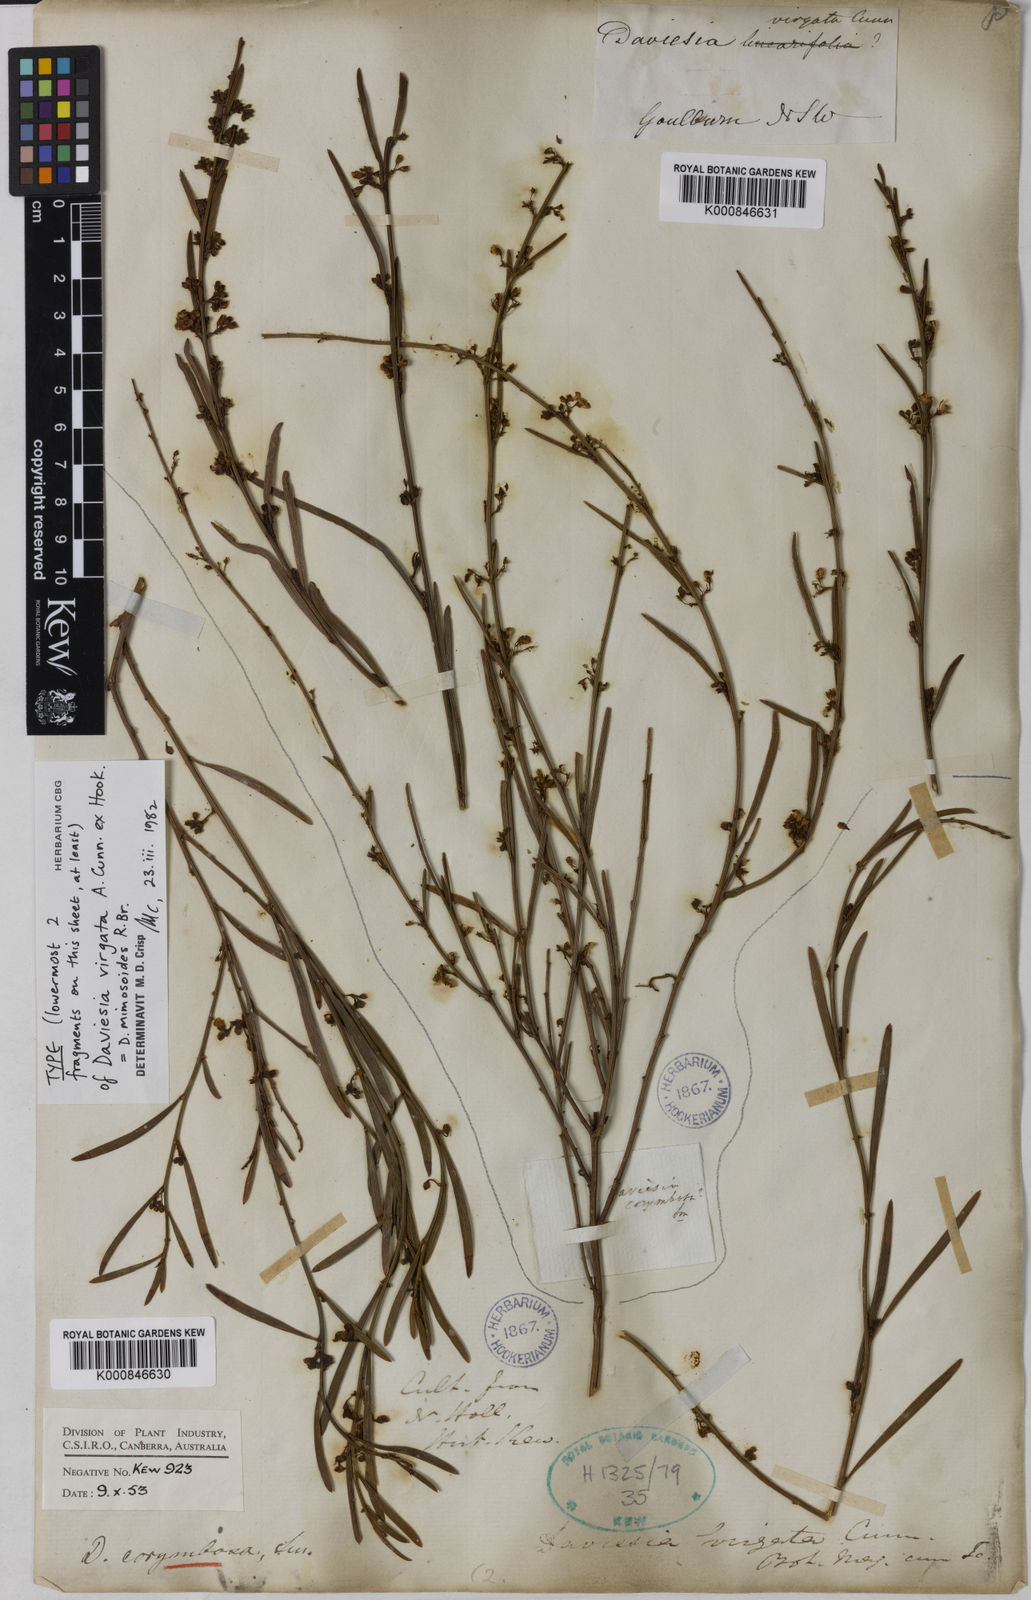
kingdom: Plantae
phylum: Tracheophyta
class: Magnoliopsida
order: Fabales
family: Fabaceae
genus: Daviesia
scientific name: Daviesia mimosoides
